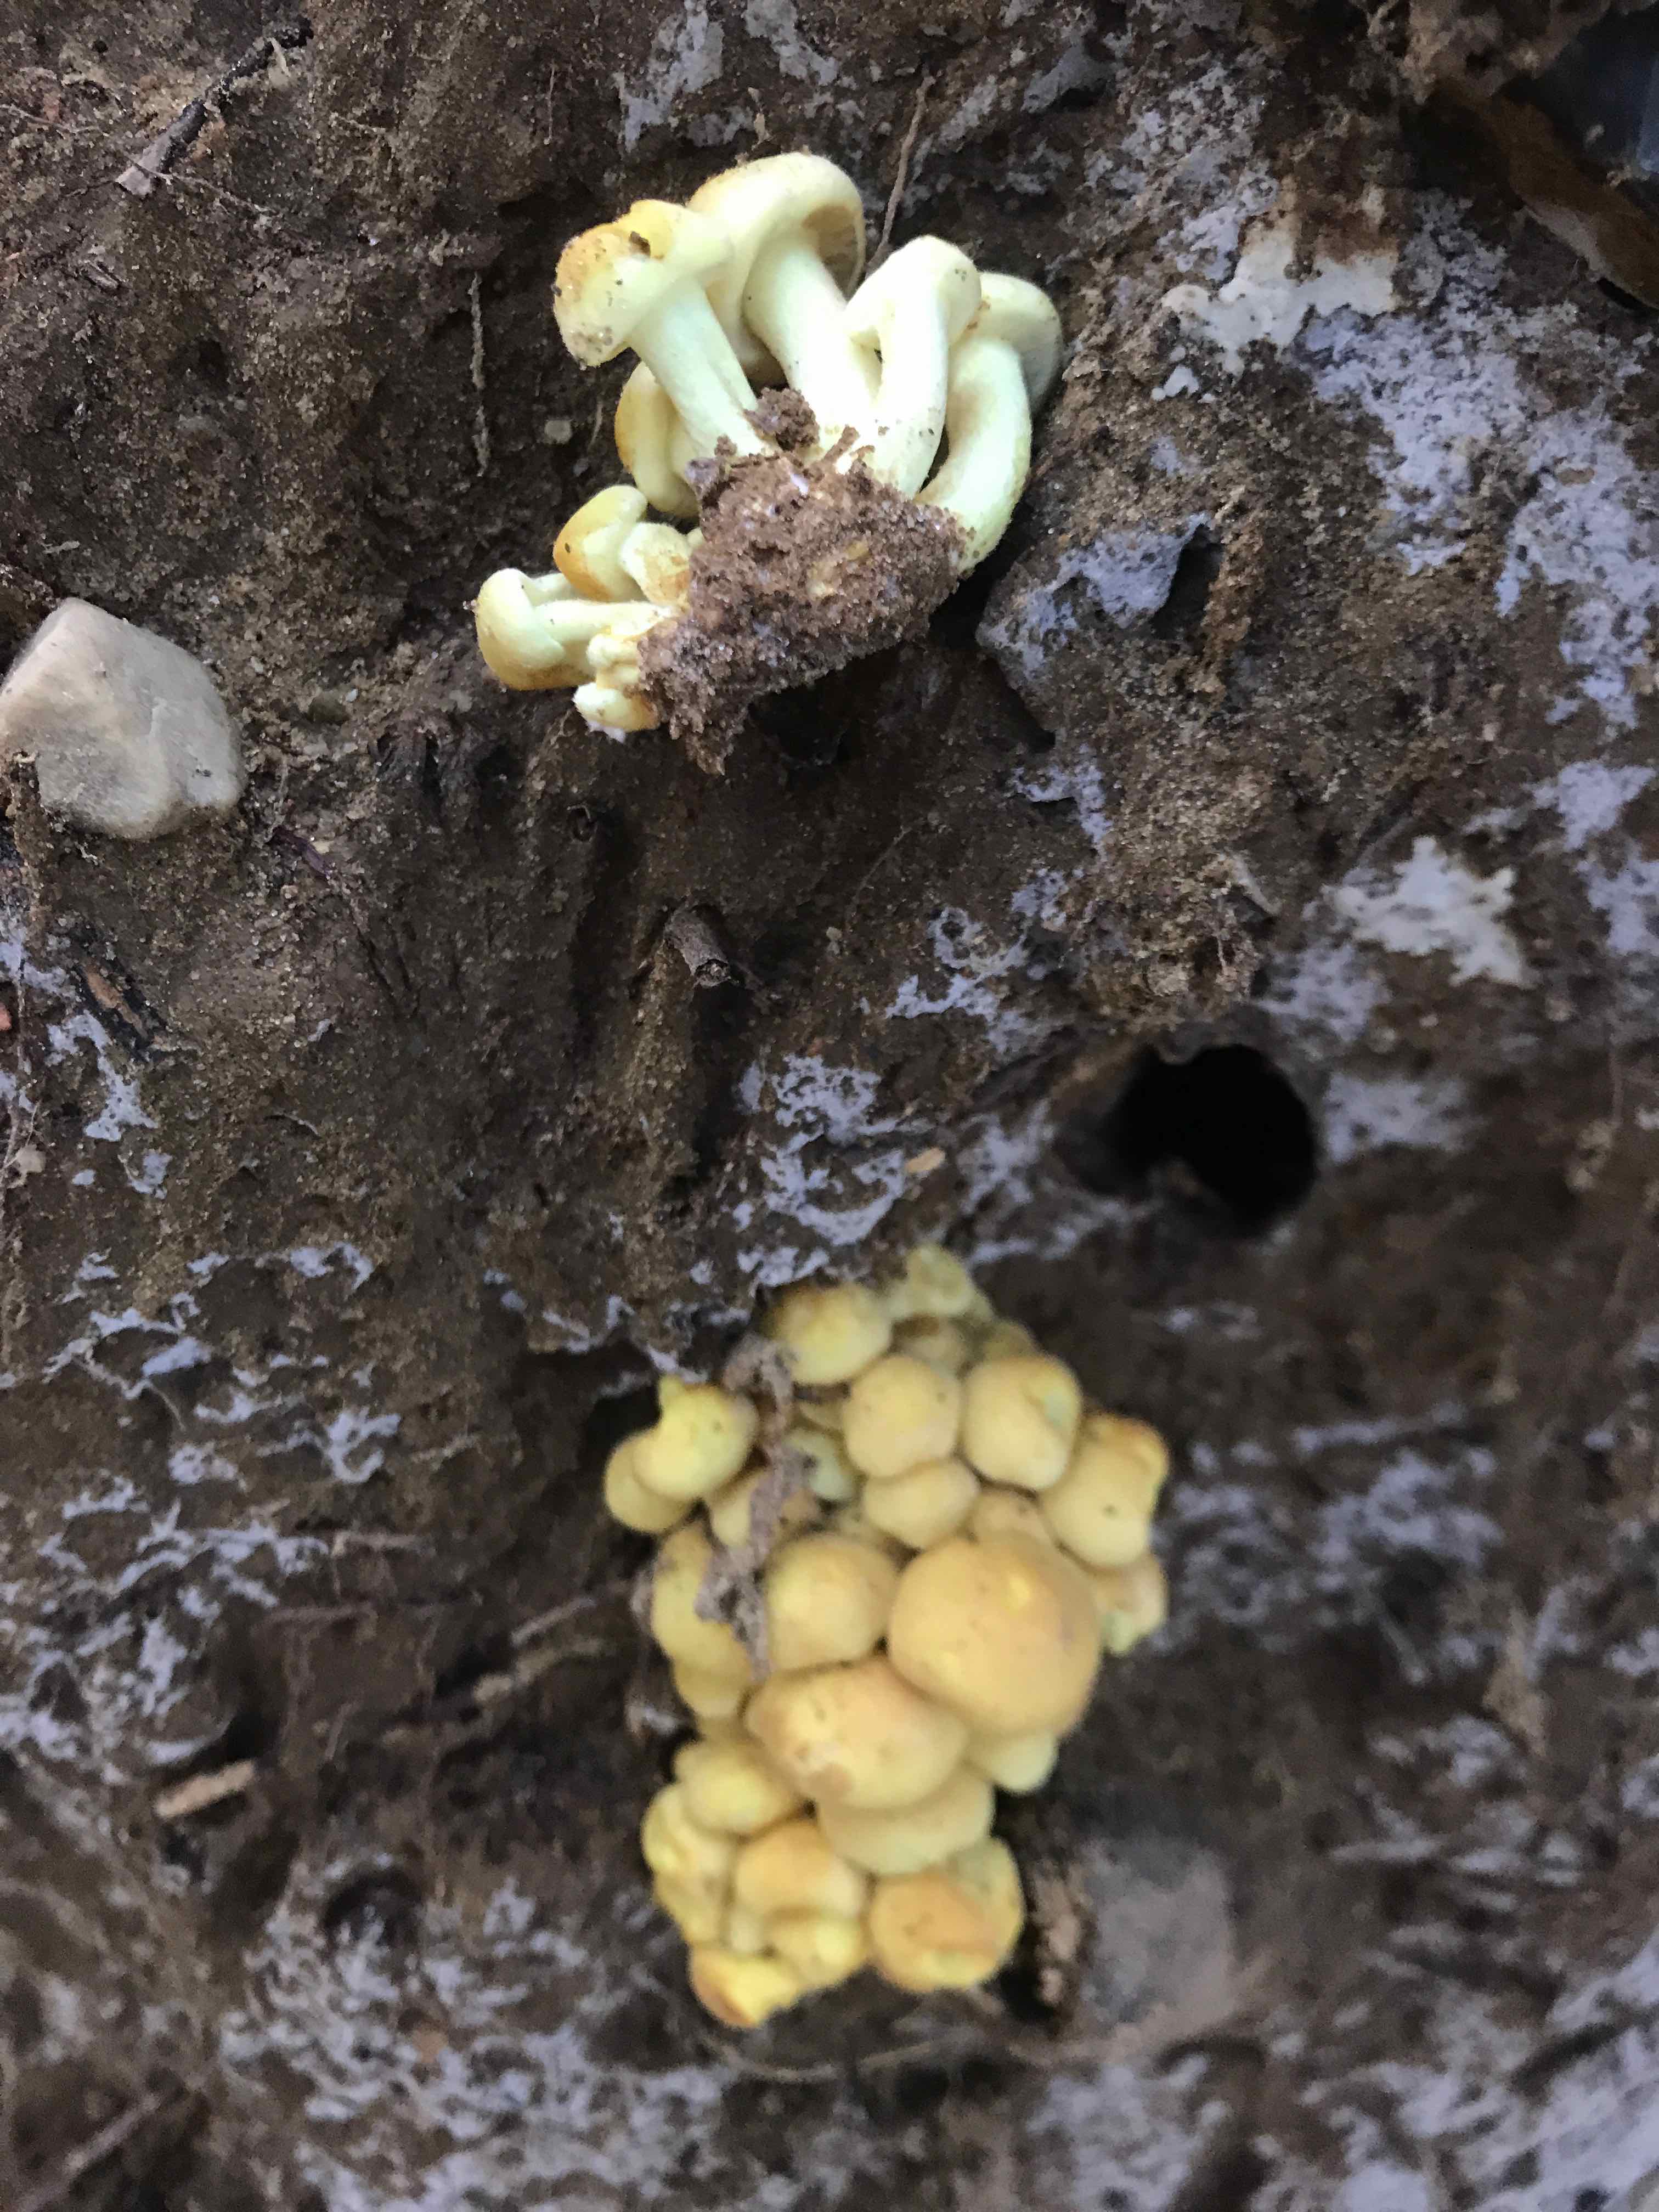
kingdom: Fungi
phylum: Basidiomycota
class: Agaricomycetes
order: Agaricales
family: Strophariaceae
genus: Hypholoma
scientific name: Hypholoma fasciculare
